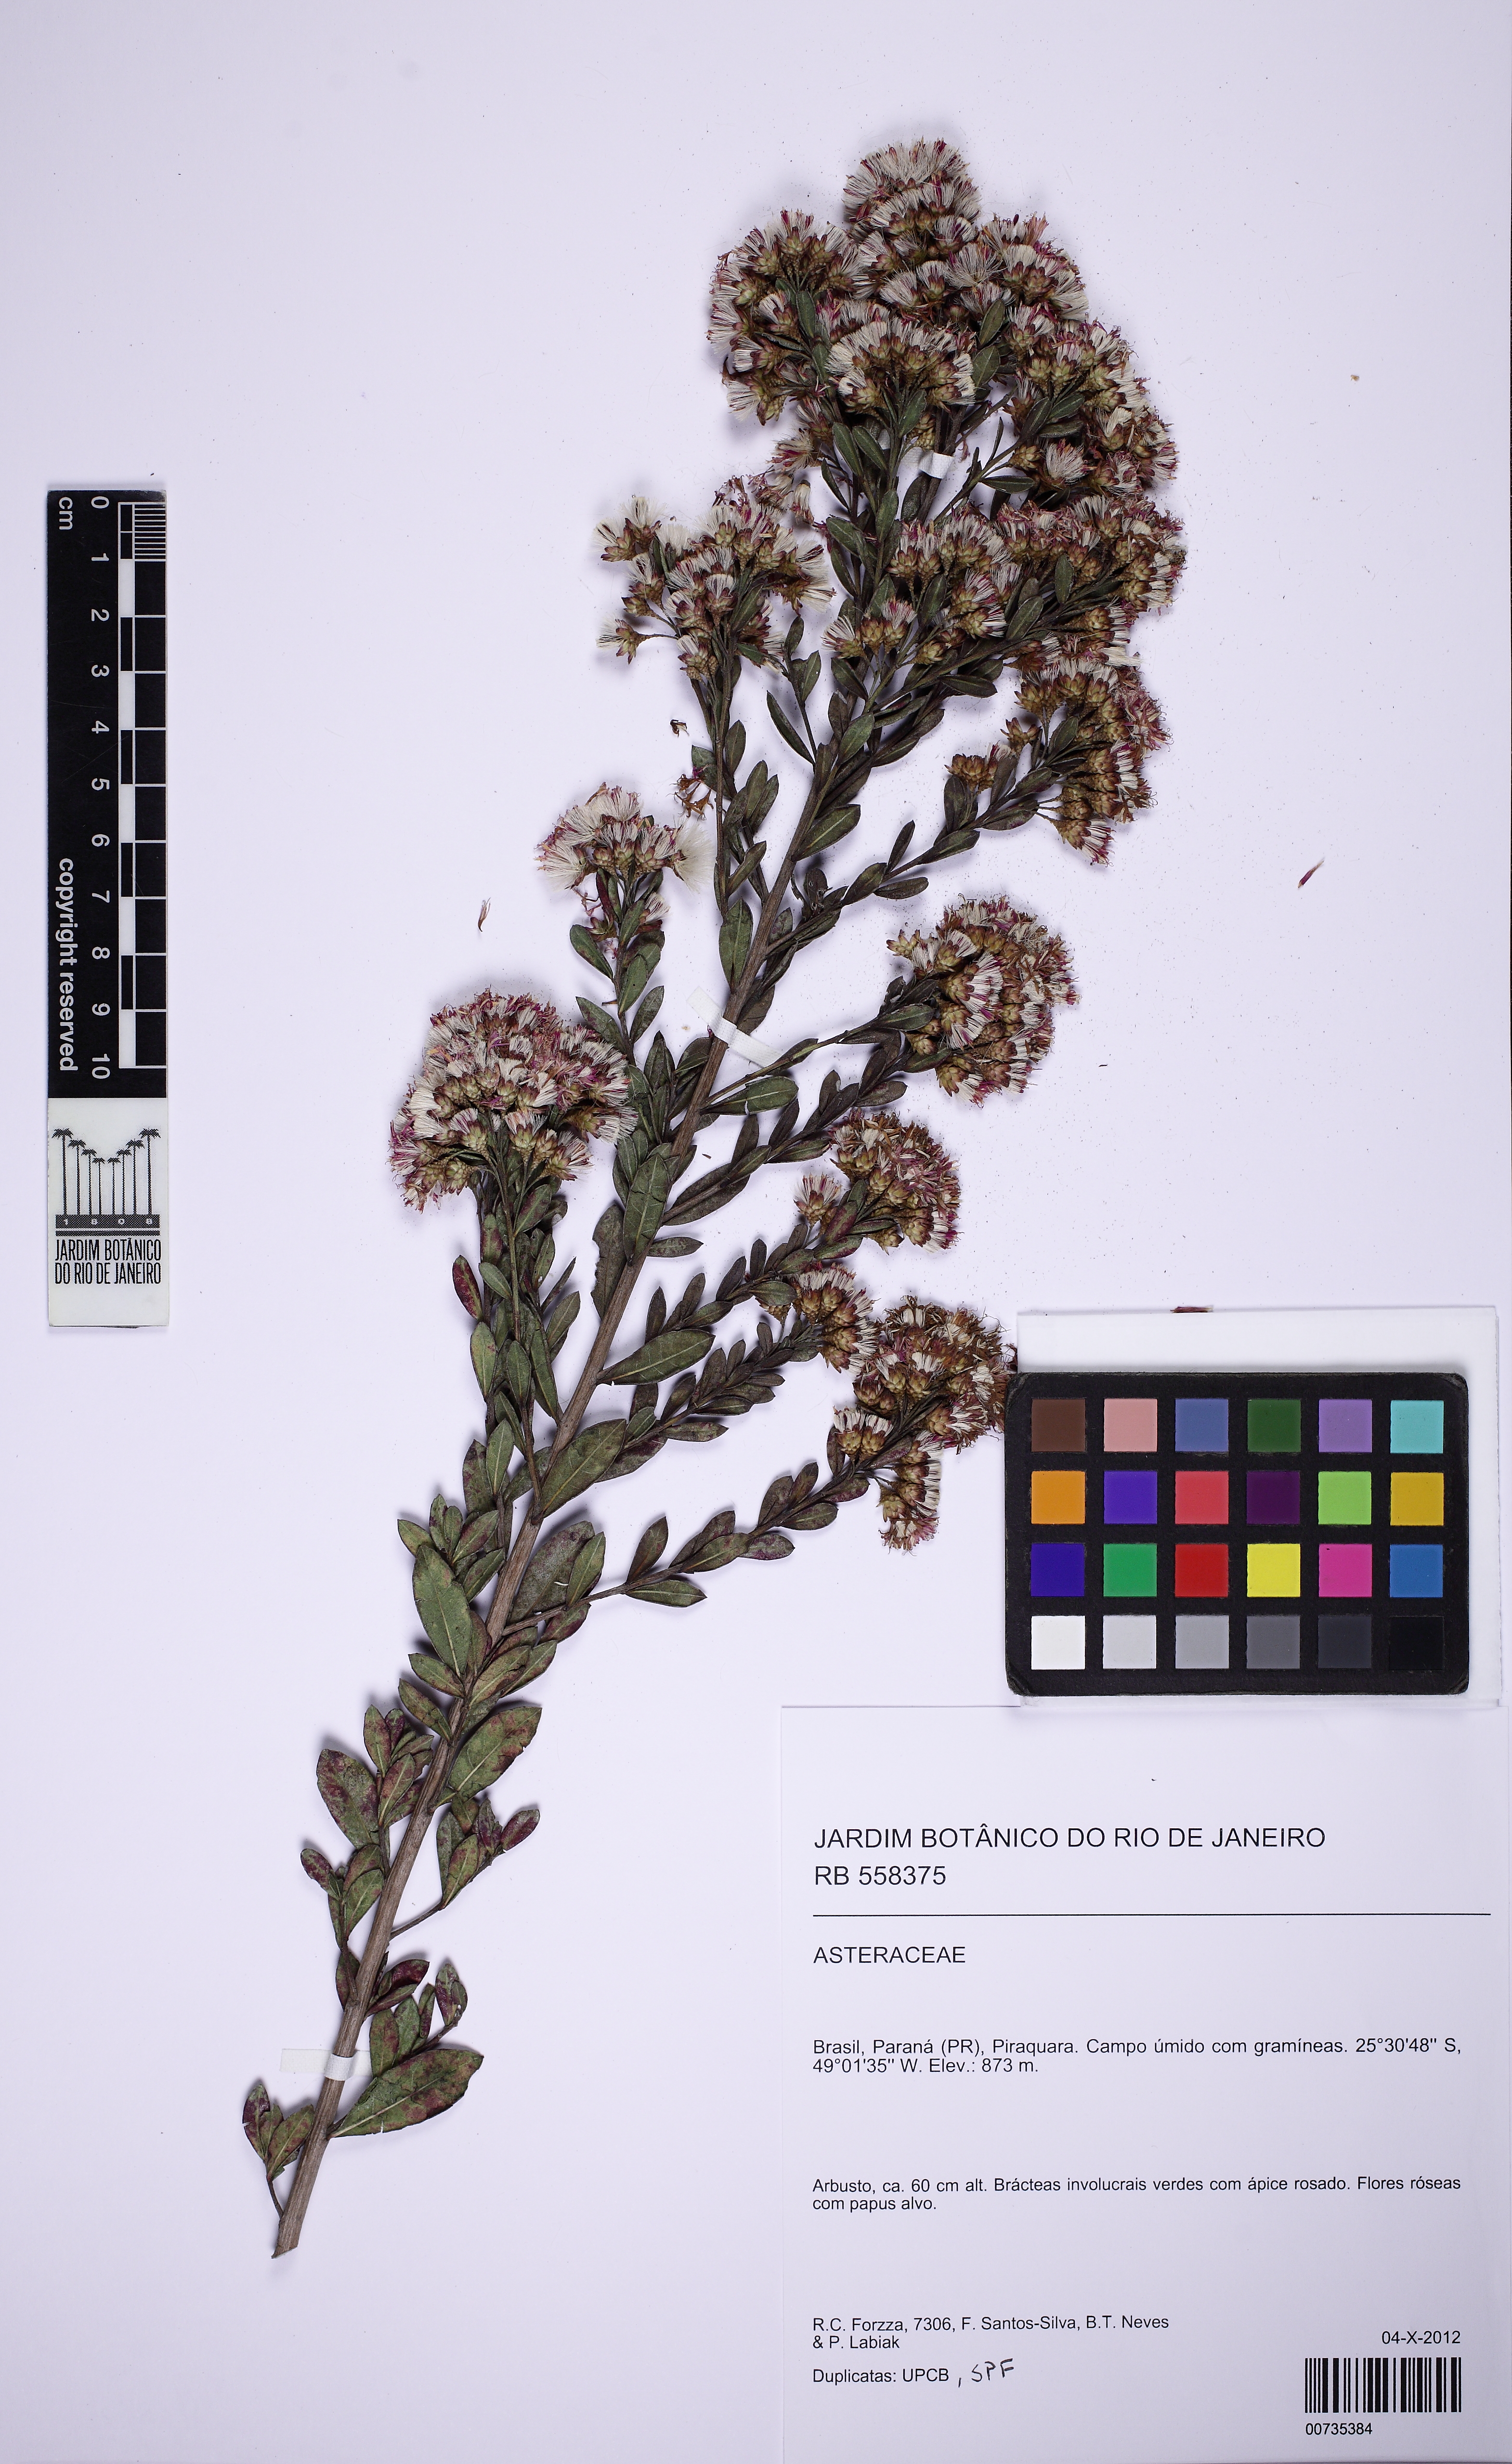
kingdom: Plantae
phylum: Tracheophyta
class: Magnoliopsida
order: Asterales
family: Asteraceae
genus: Vernonanthura
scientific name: Vernonanthura
